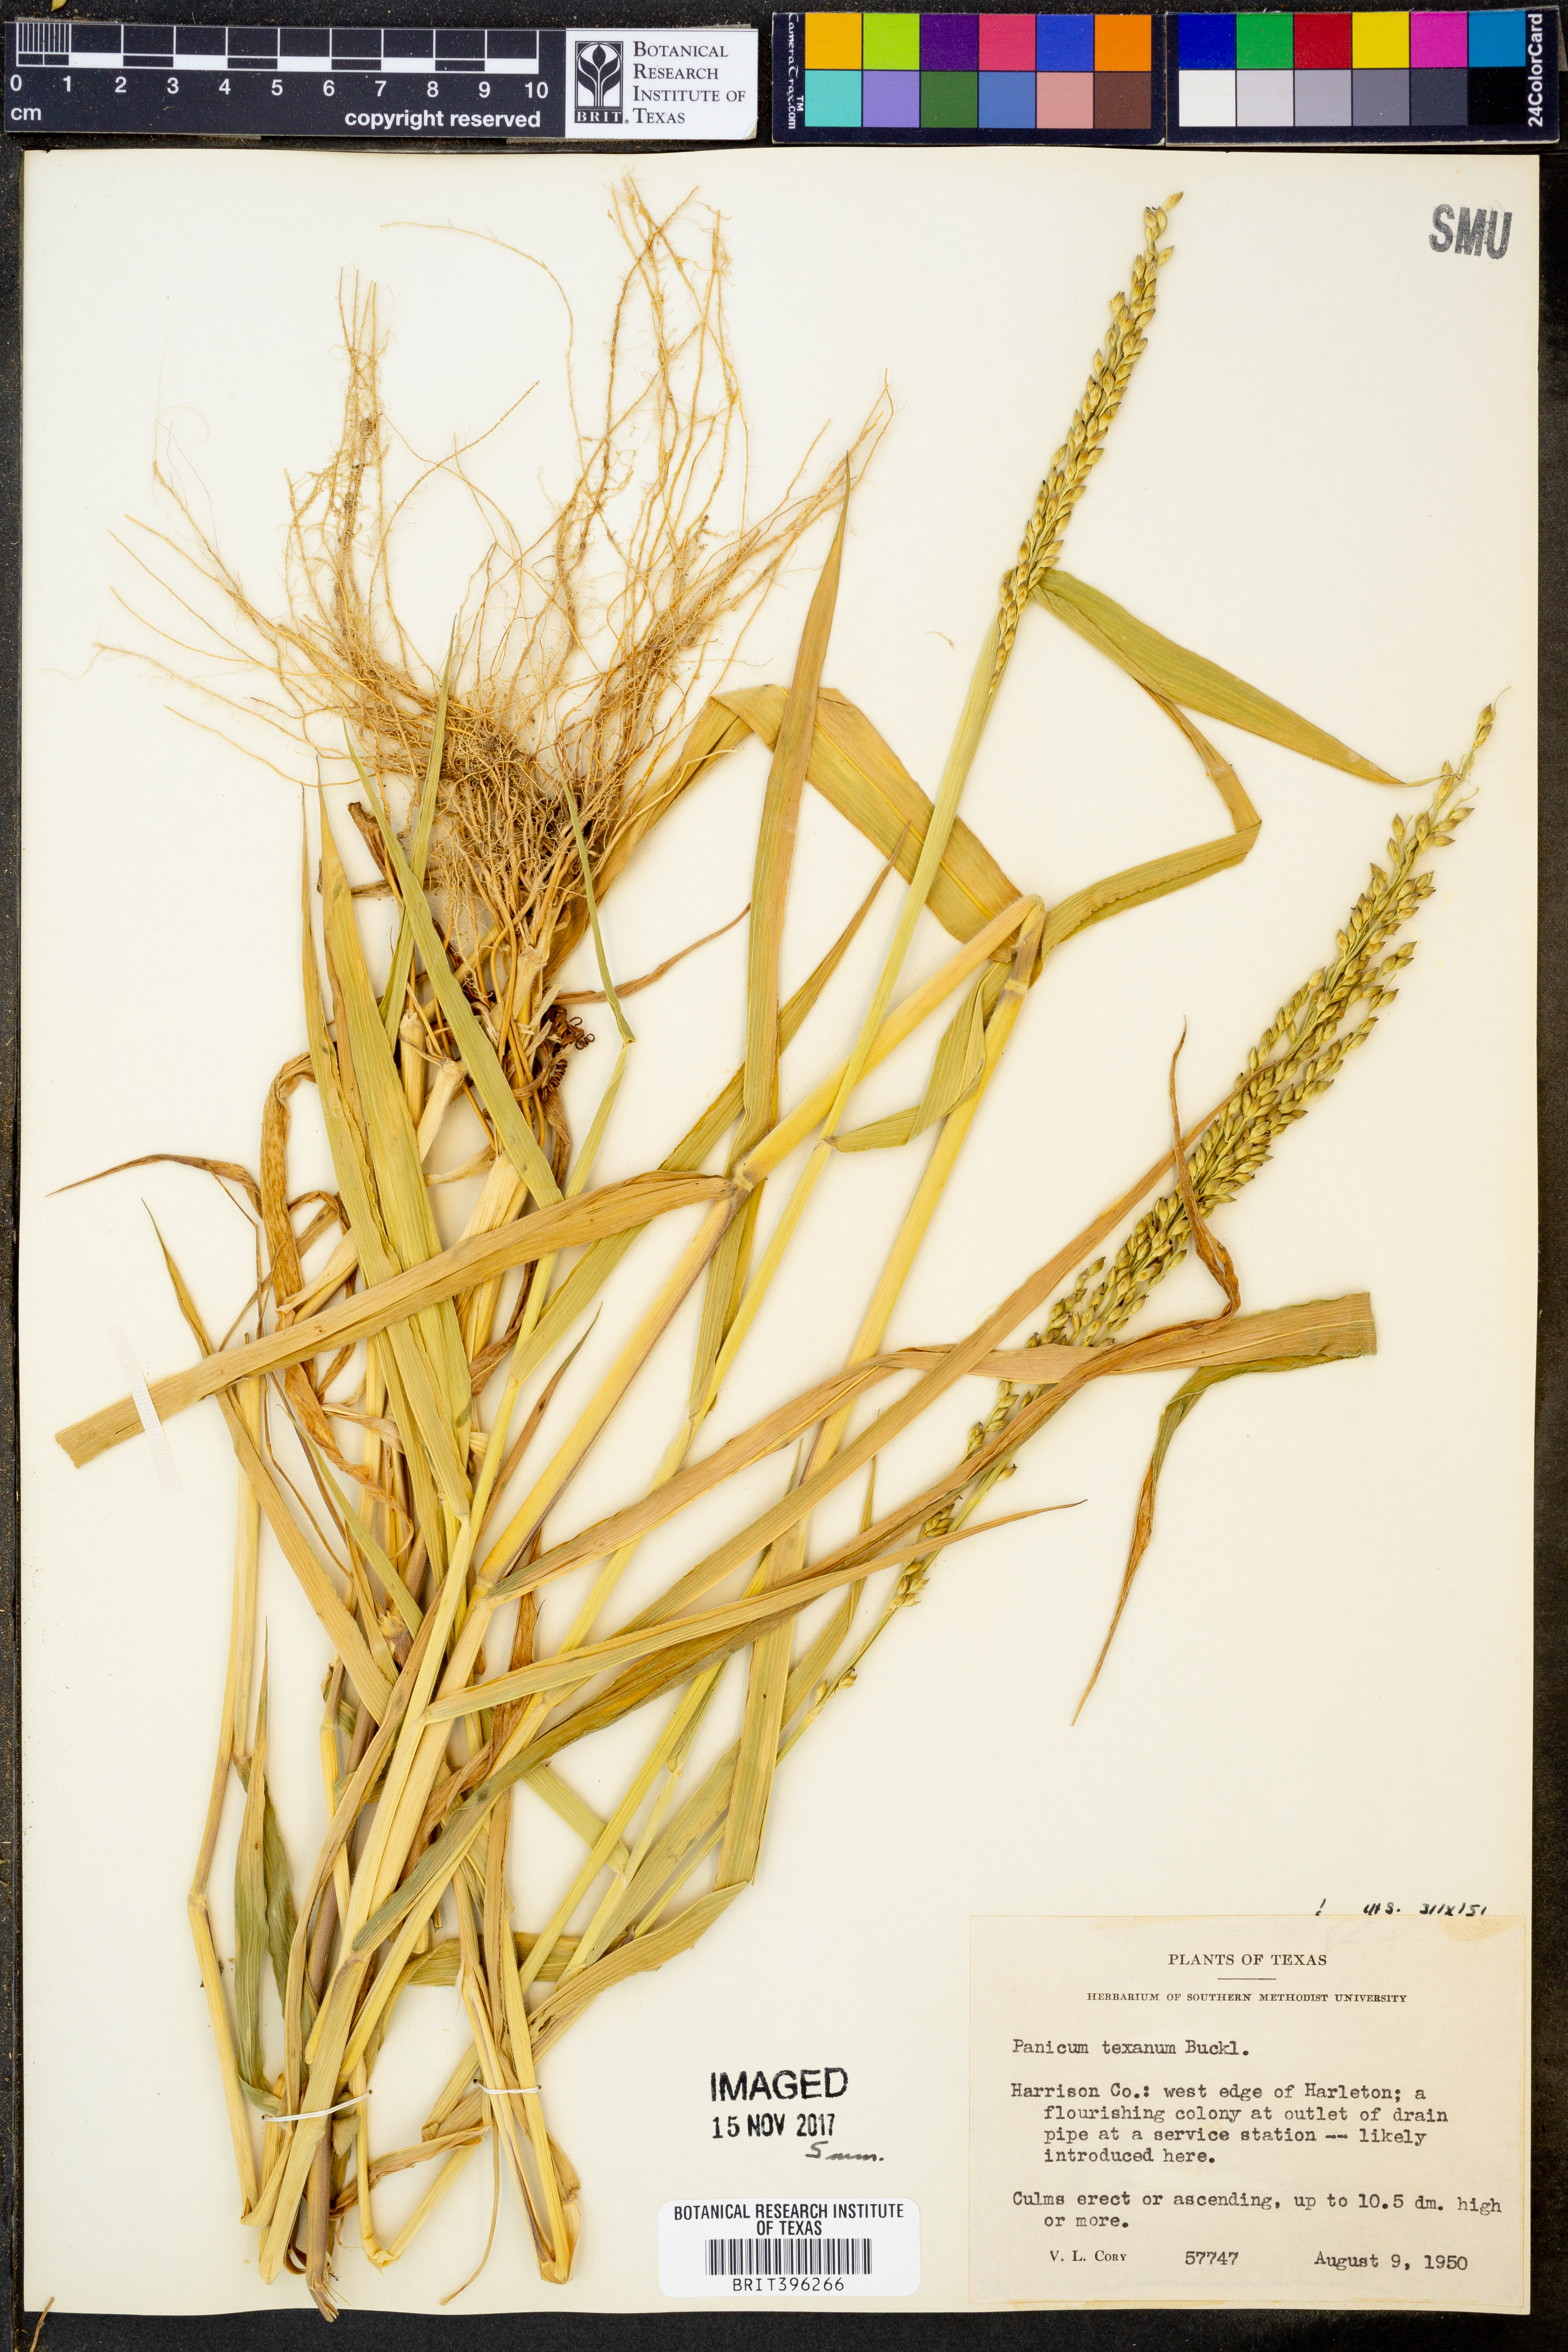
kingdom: Plantae
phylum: Tracheophyta
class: Liliopsida
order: Poales
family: Poaceae
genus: Urochloa
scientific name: Urochloa texana
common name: Texas millet
